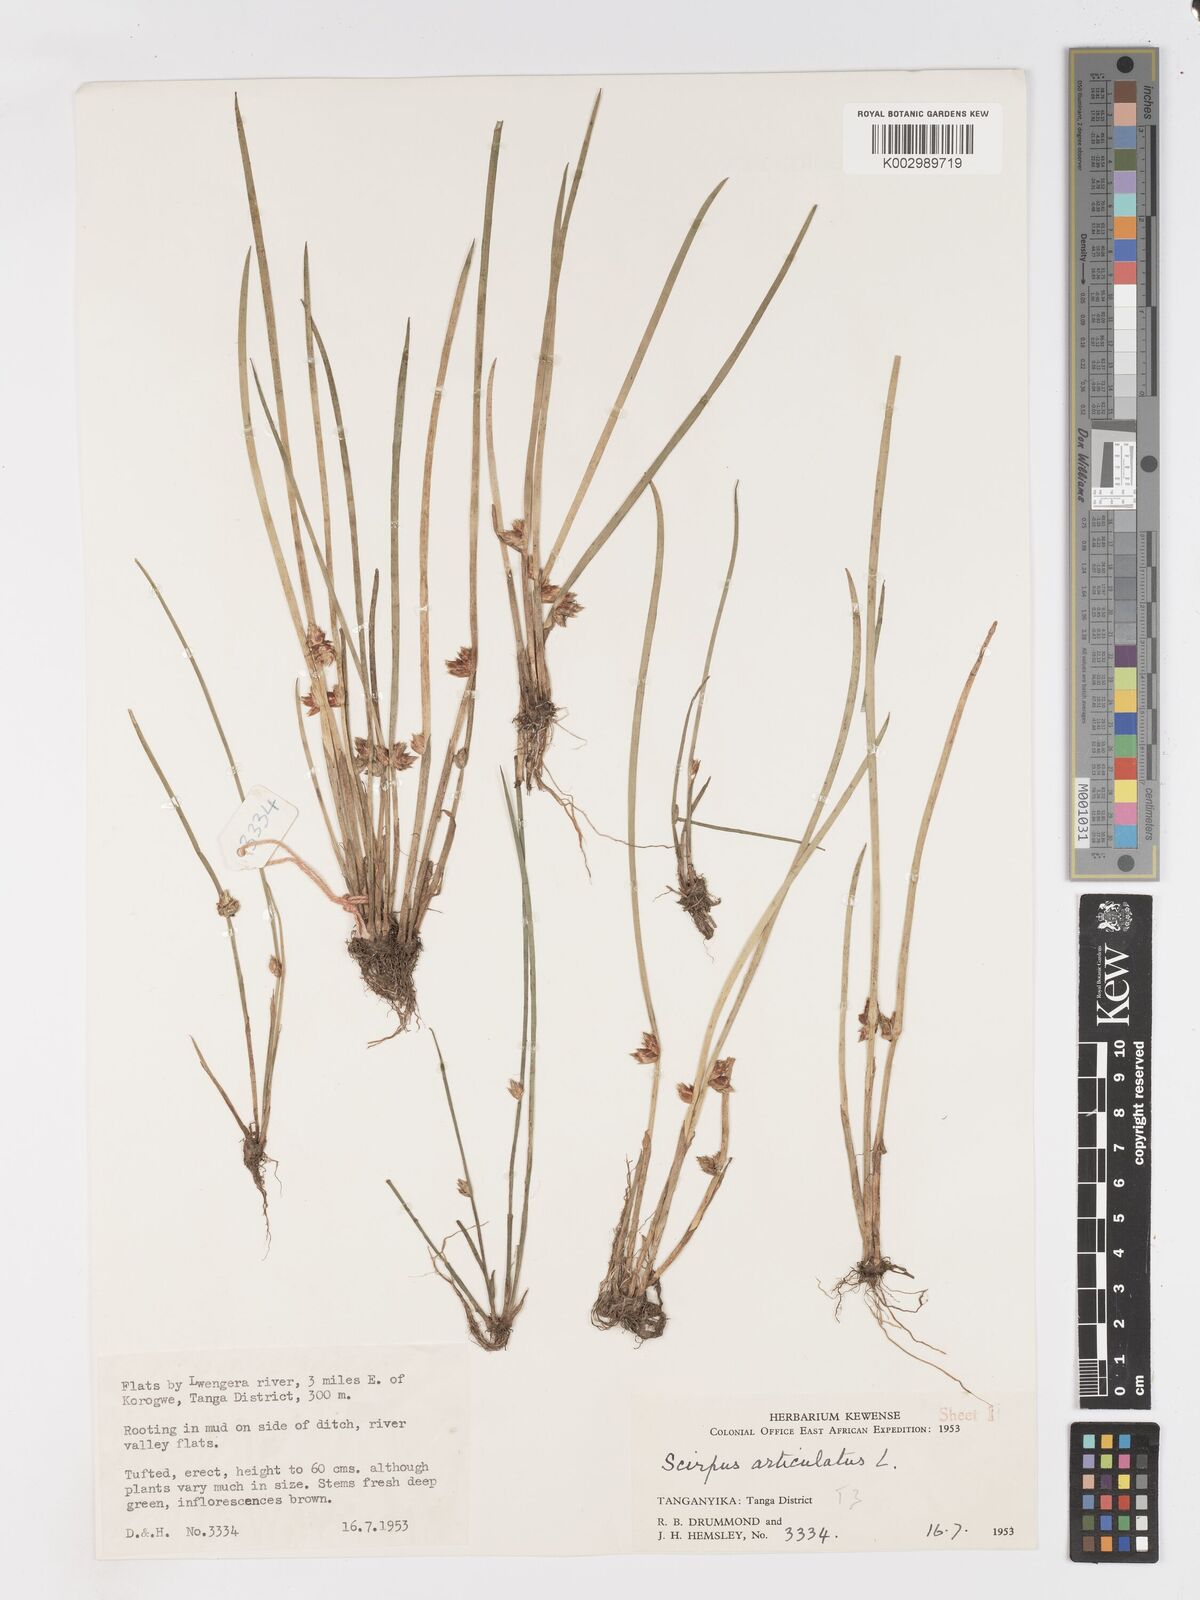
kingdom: Plantae
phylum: Tracheophyta
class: Liliopsida
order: Poales
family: Cyperaceae
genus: Schoenoplectiella
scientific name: Schoenoplectiella articulata
